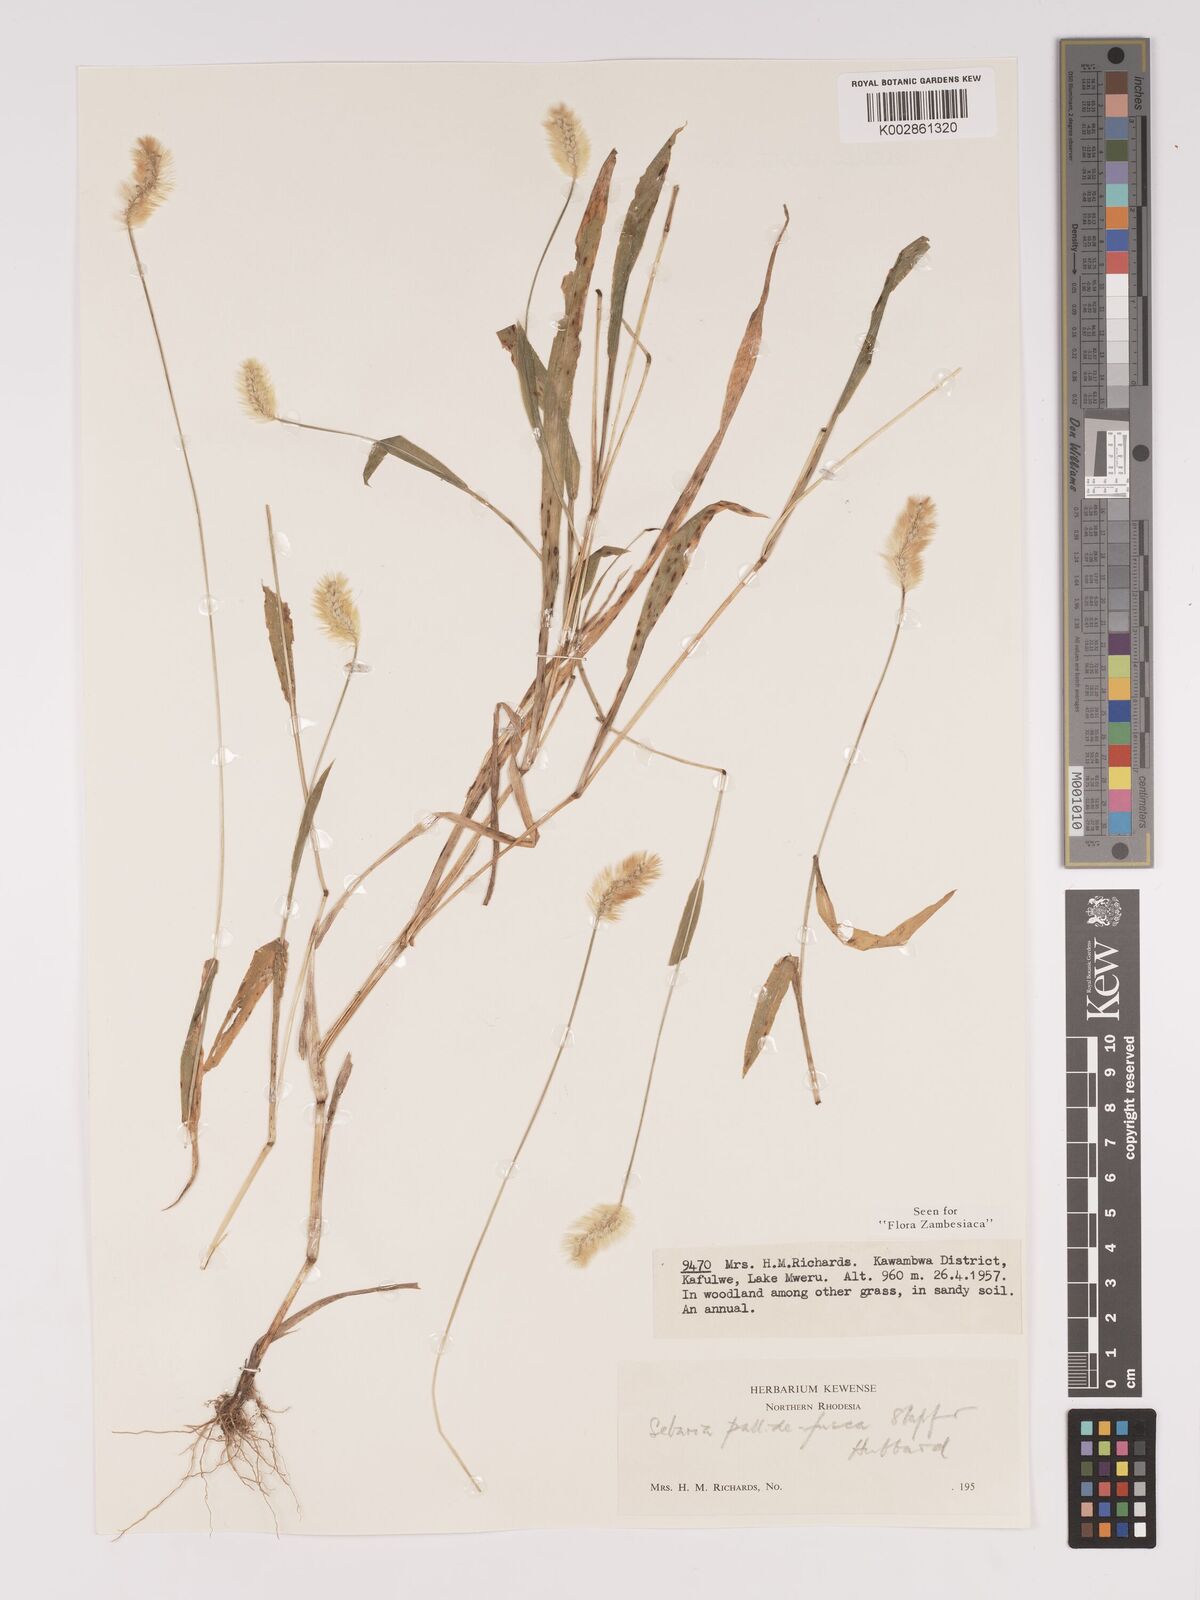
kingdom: Plantae
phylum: Tracheophyta
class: Liliopsida
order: Poales
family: Poaceae
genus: Setaria
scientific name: Setaria pumila
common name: Yellow bristle-grass
